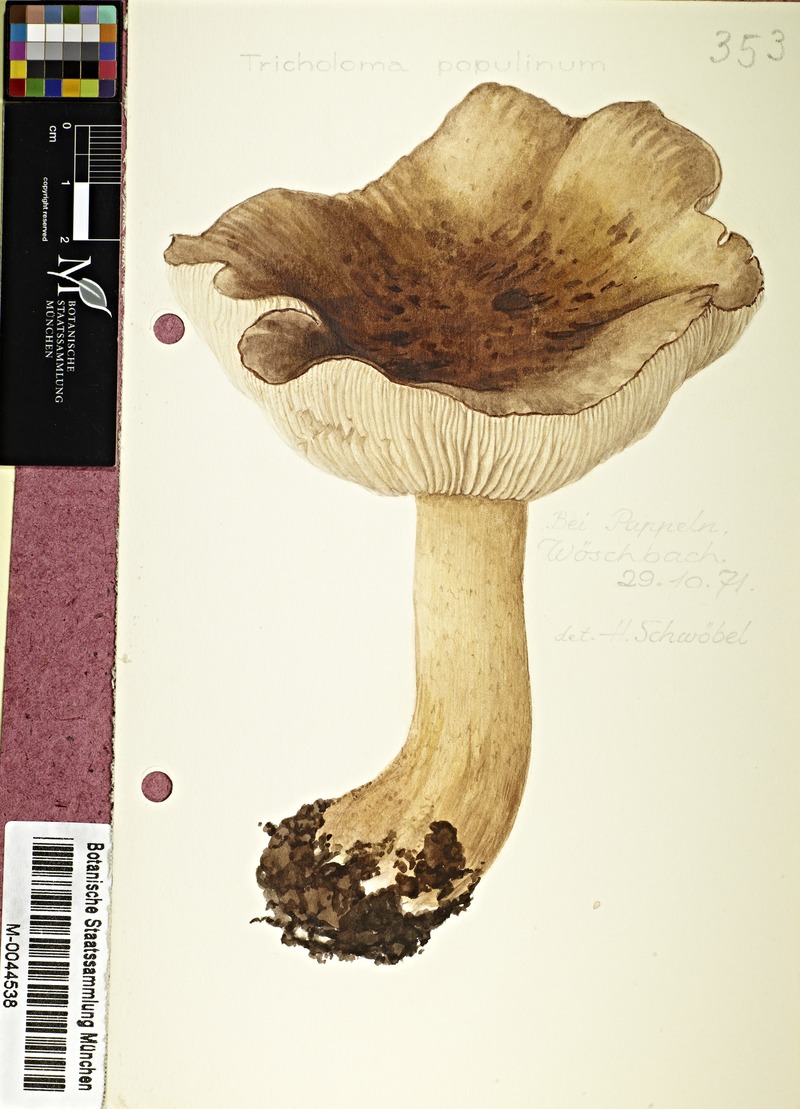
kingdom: Fungi
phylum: Basidiomycota
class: Agaricomycetes
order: Agaricales
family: Tricholomataceae
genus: Tricholoma
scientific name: Tricholoma populinum
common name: Poplar knight
